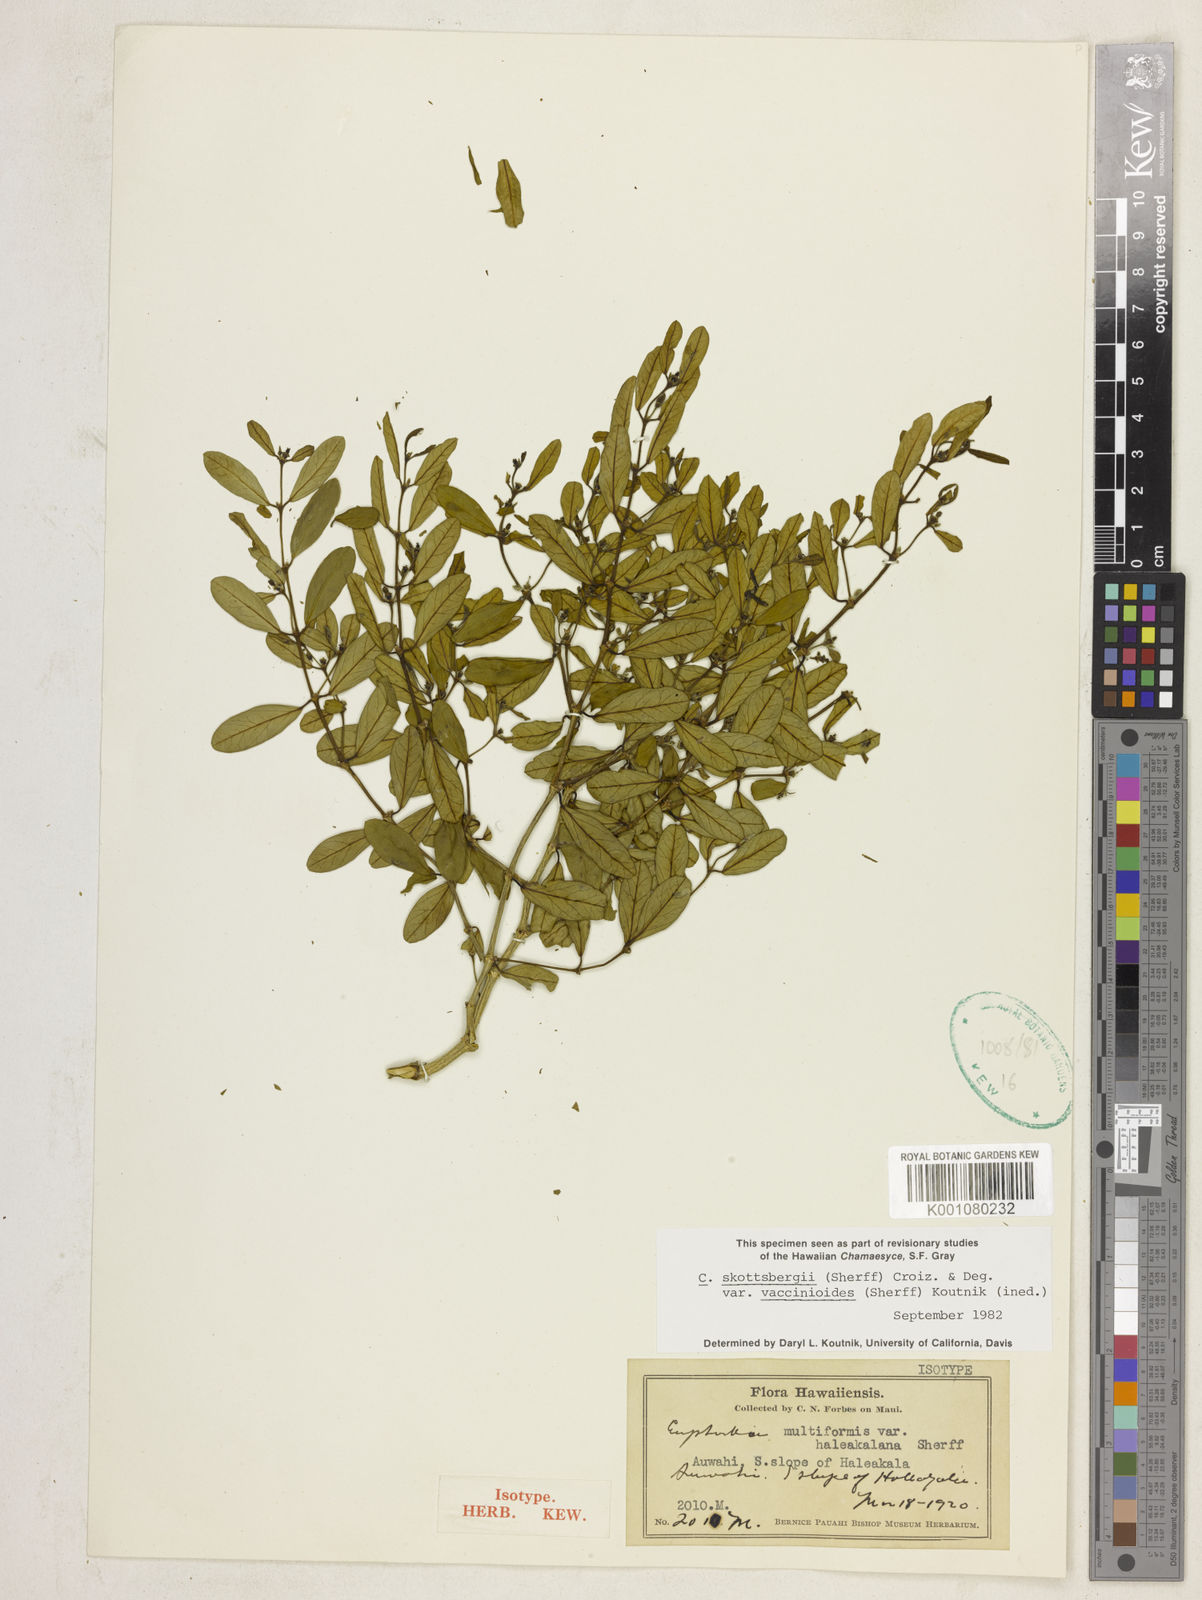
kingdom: Plantae
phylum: Tracheophyta
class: Magnoliopsida
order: Malpighiales
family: Euphorbiaceae
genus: Euphorbia
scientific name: Euphorbia skottsbergii
